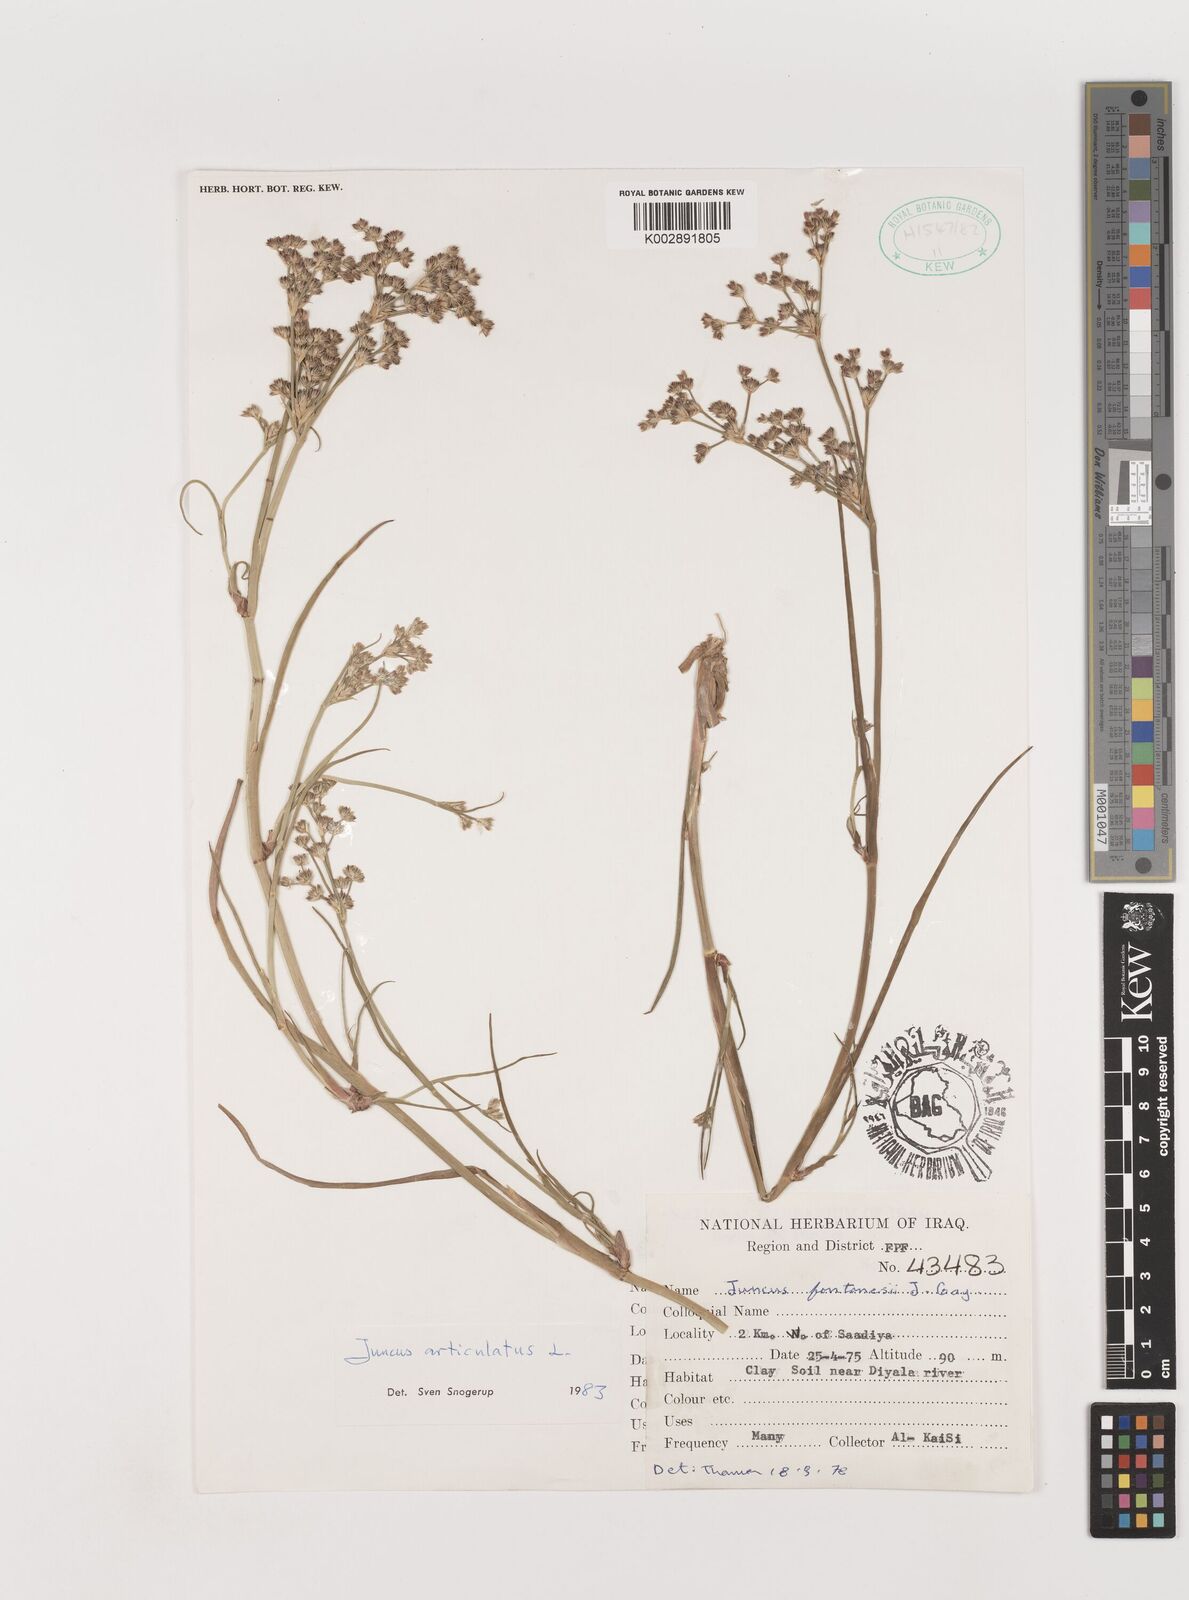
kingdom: Plantae
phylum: Tracheophyta
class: Liliopsida
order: Poales
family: Juncaceae
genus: Juncus
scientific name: Juncus articulatus
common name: Jointed rush
